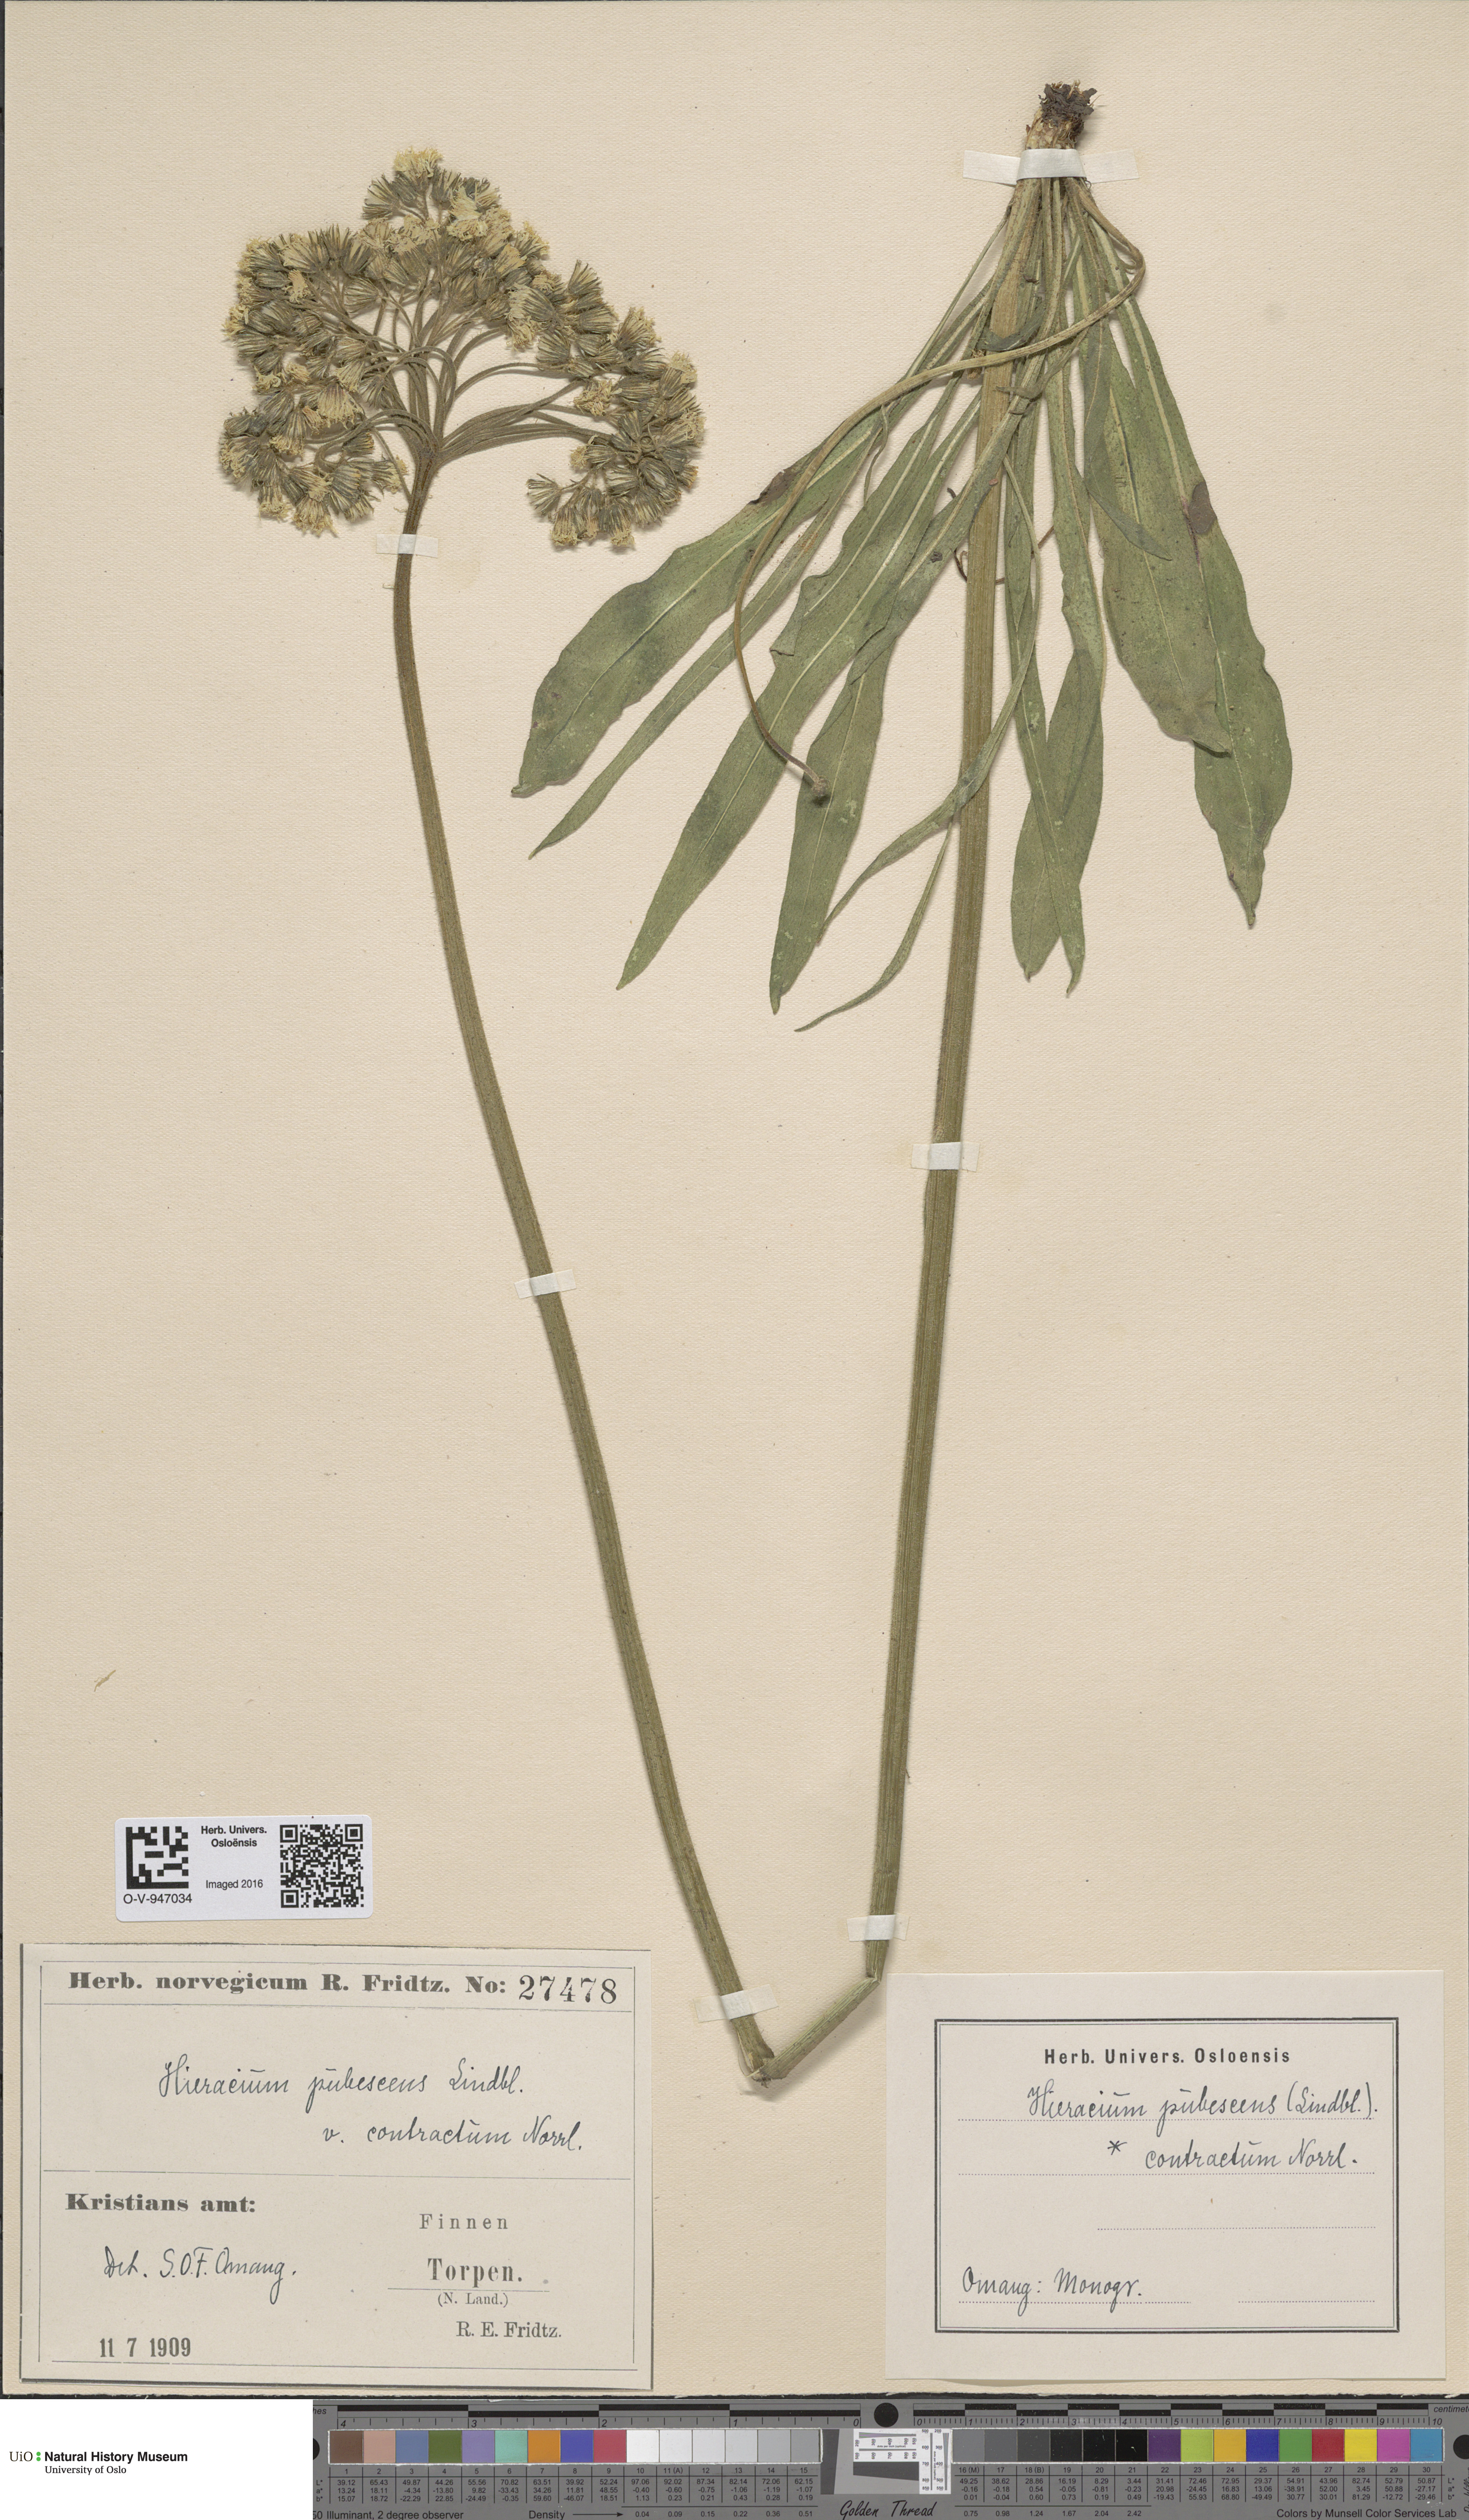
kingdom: Plantae
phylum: Tracheophyta
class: Magnoliopsida
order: Asterales
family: Asteraceae
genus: Pilosella
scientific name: Pilosella cymosa
